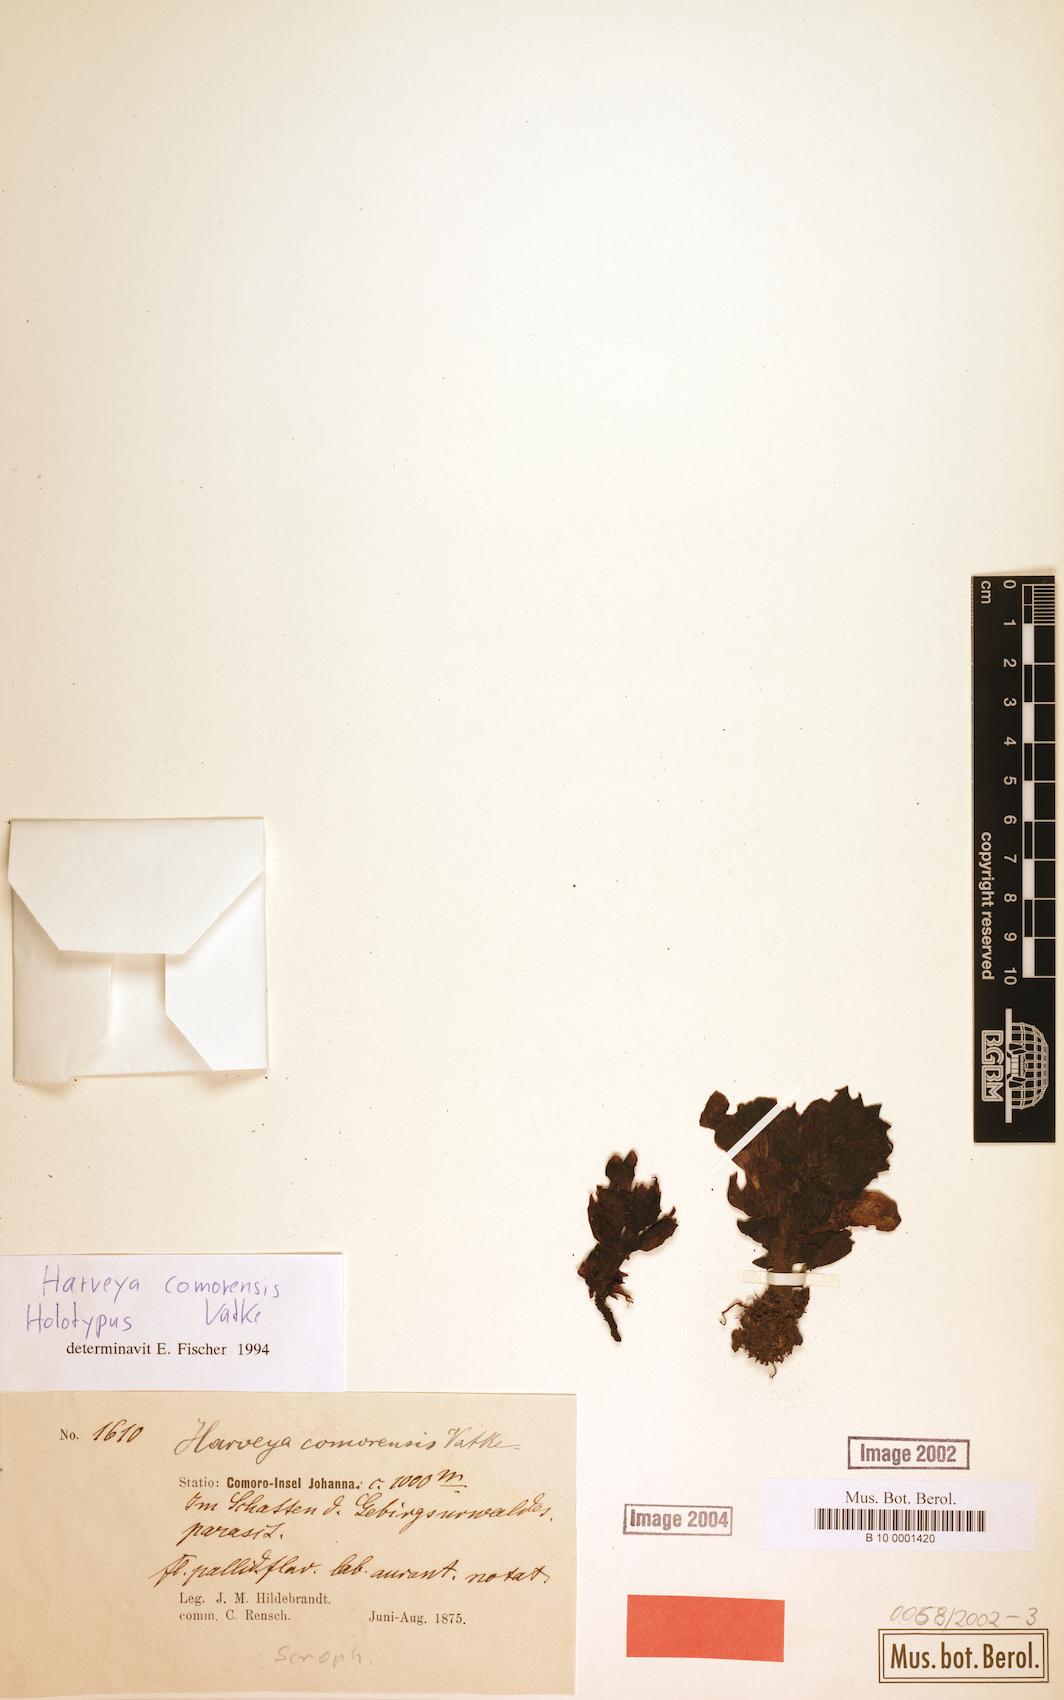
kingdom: Plantae
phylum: Tracheophyta
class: Magnoliopsida
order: Lamiales
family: Orobanchaceae
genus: Harveya
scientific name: Harveya comorensis
